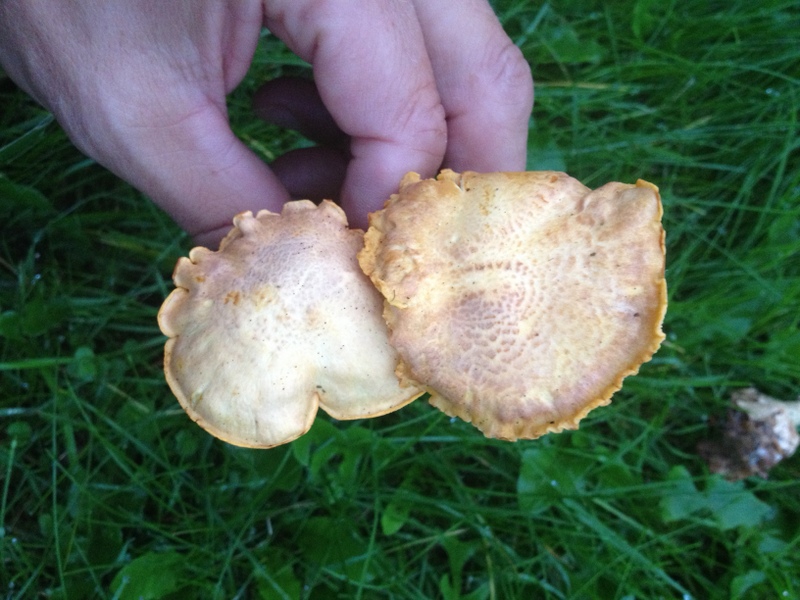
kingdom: Fungi
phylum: Basidiomycota
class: Agaricomycetes
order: Cantharellales
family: Hydnaceae
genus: Cantharellus
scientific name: Cantharellus amethysteus
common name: ametyst-kantarel
